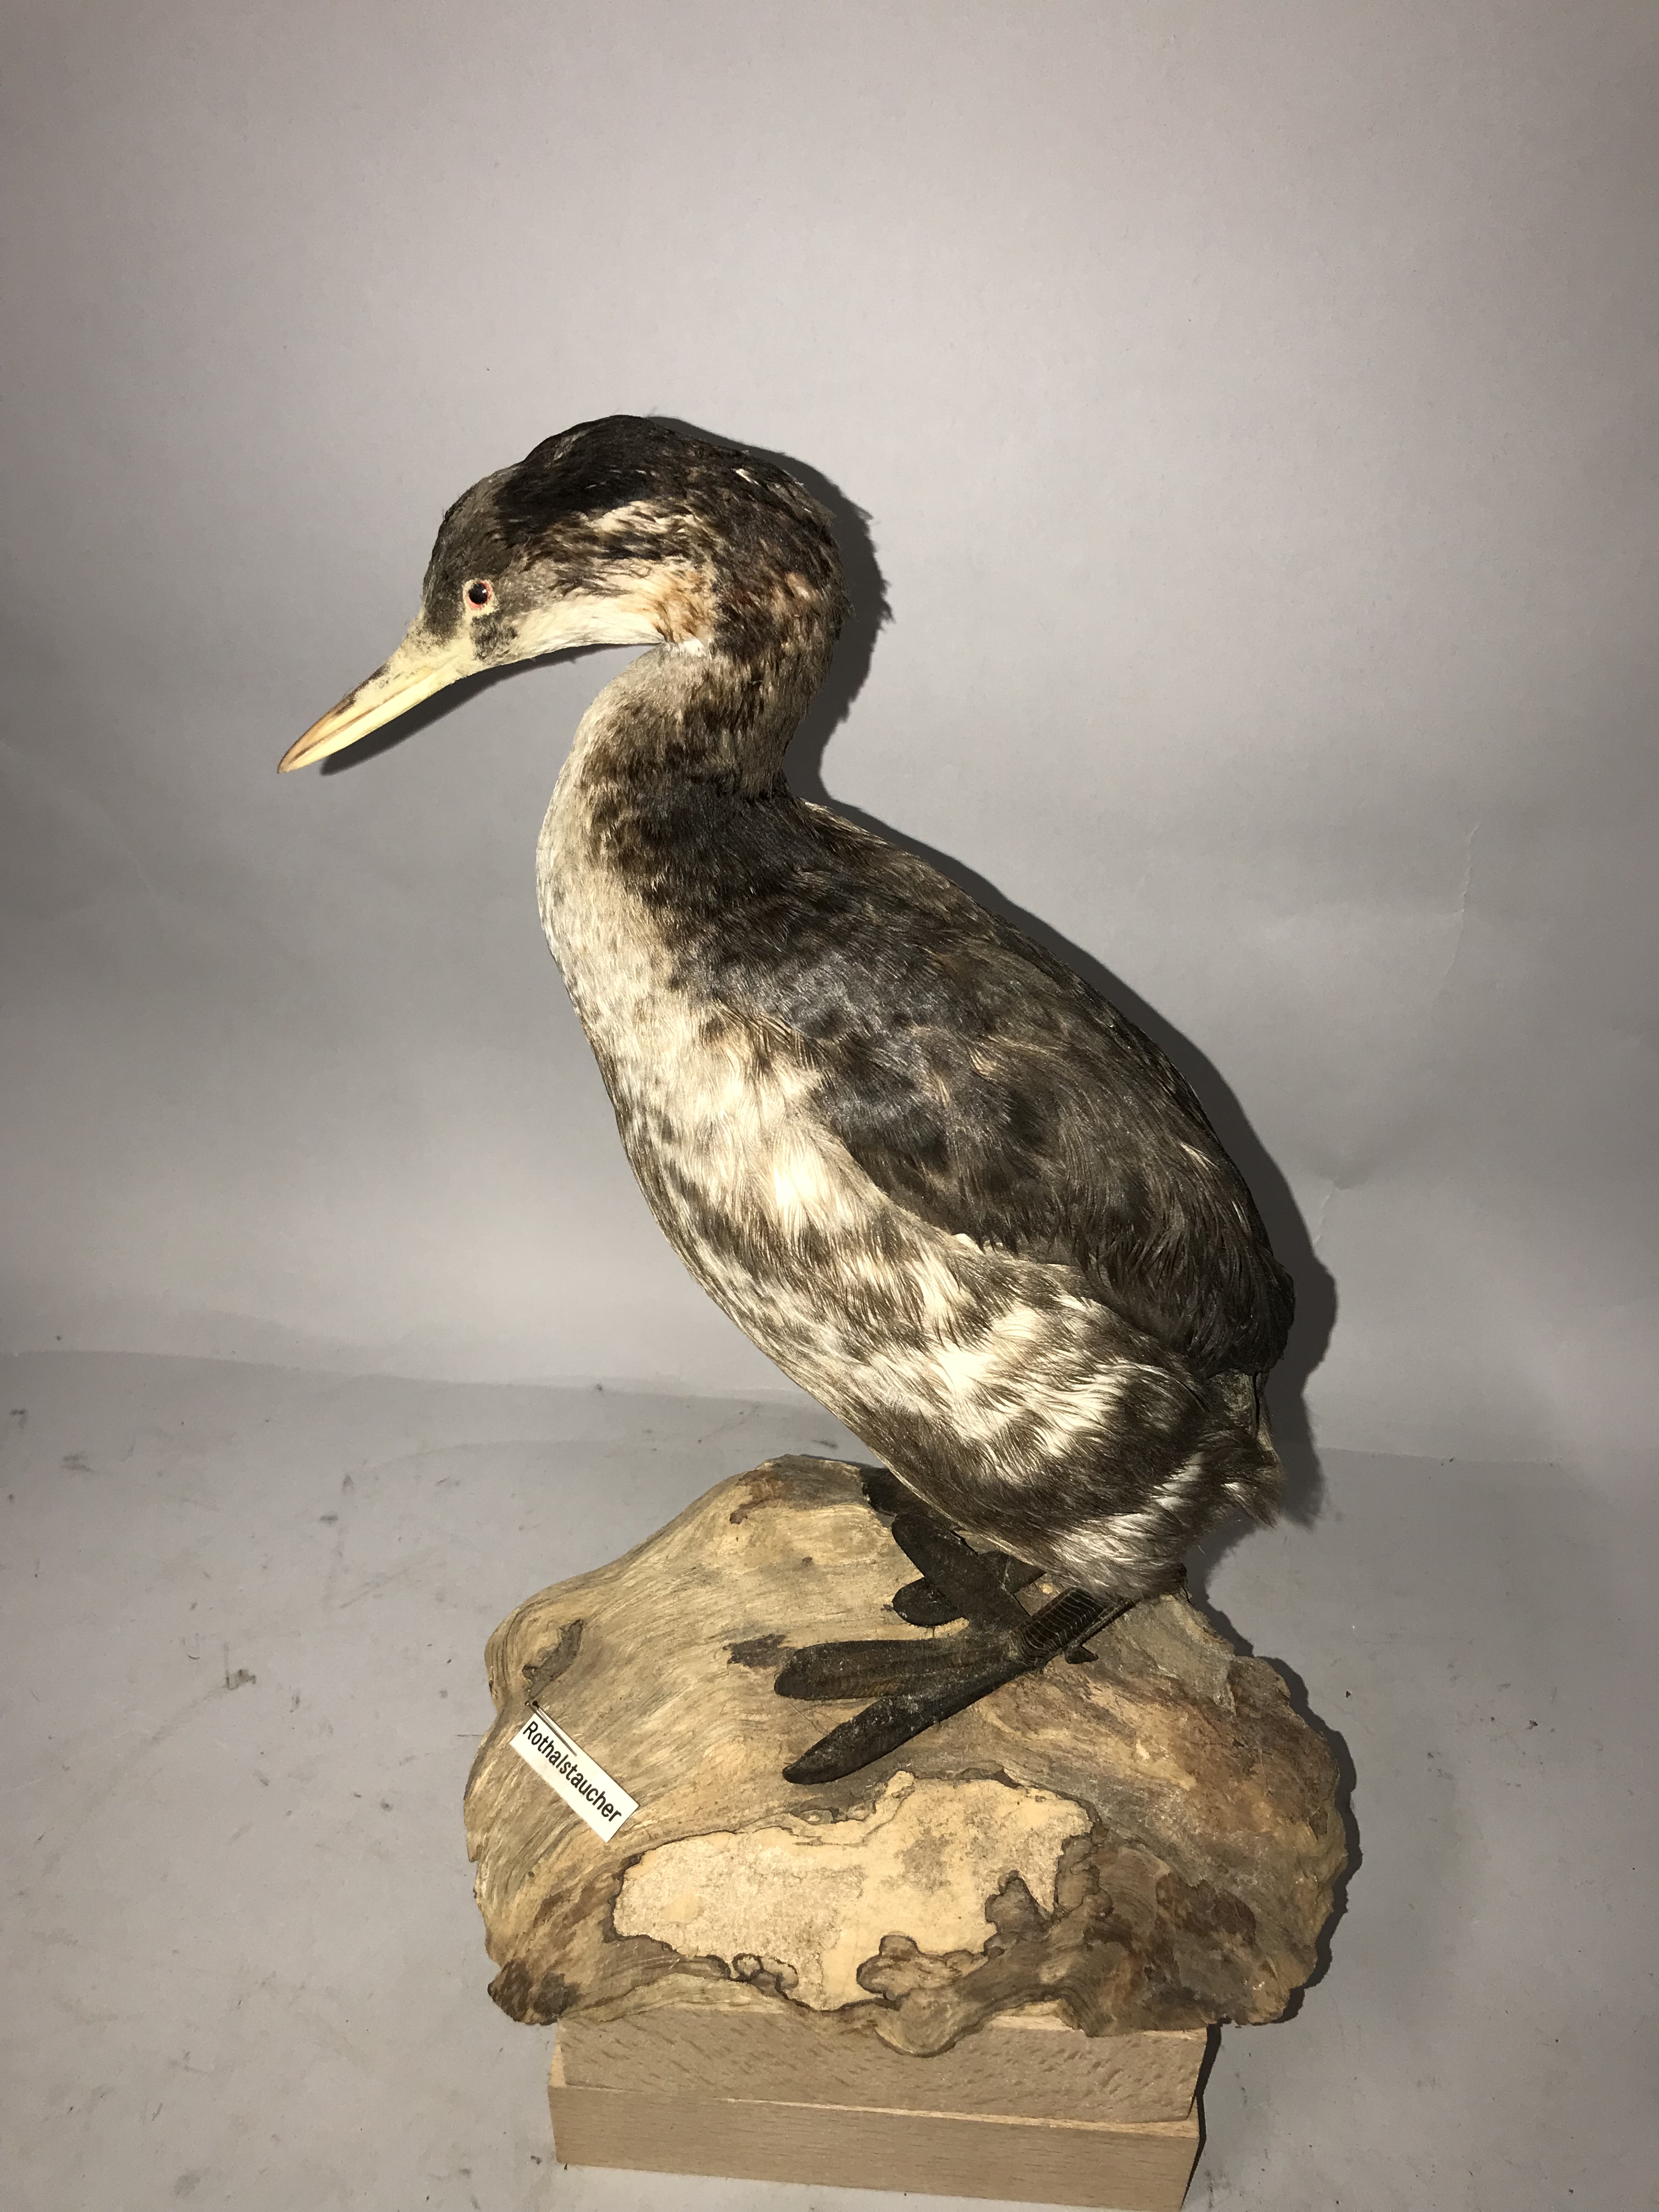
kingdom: Animalia
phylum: Chordata
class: Aves
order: Podicipediformes
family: Podicipedidae
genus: Podiceps
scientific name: Podiceps grisegena
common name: Red-necked grebe
